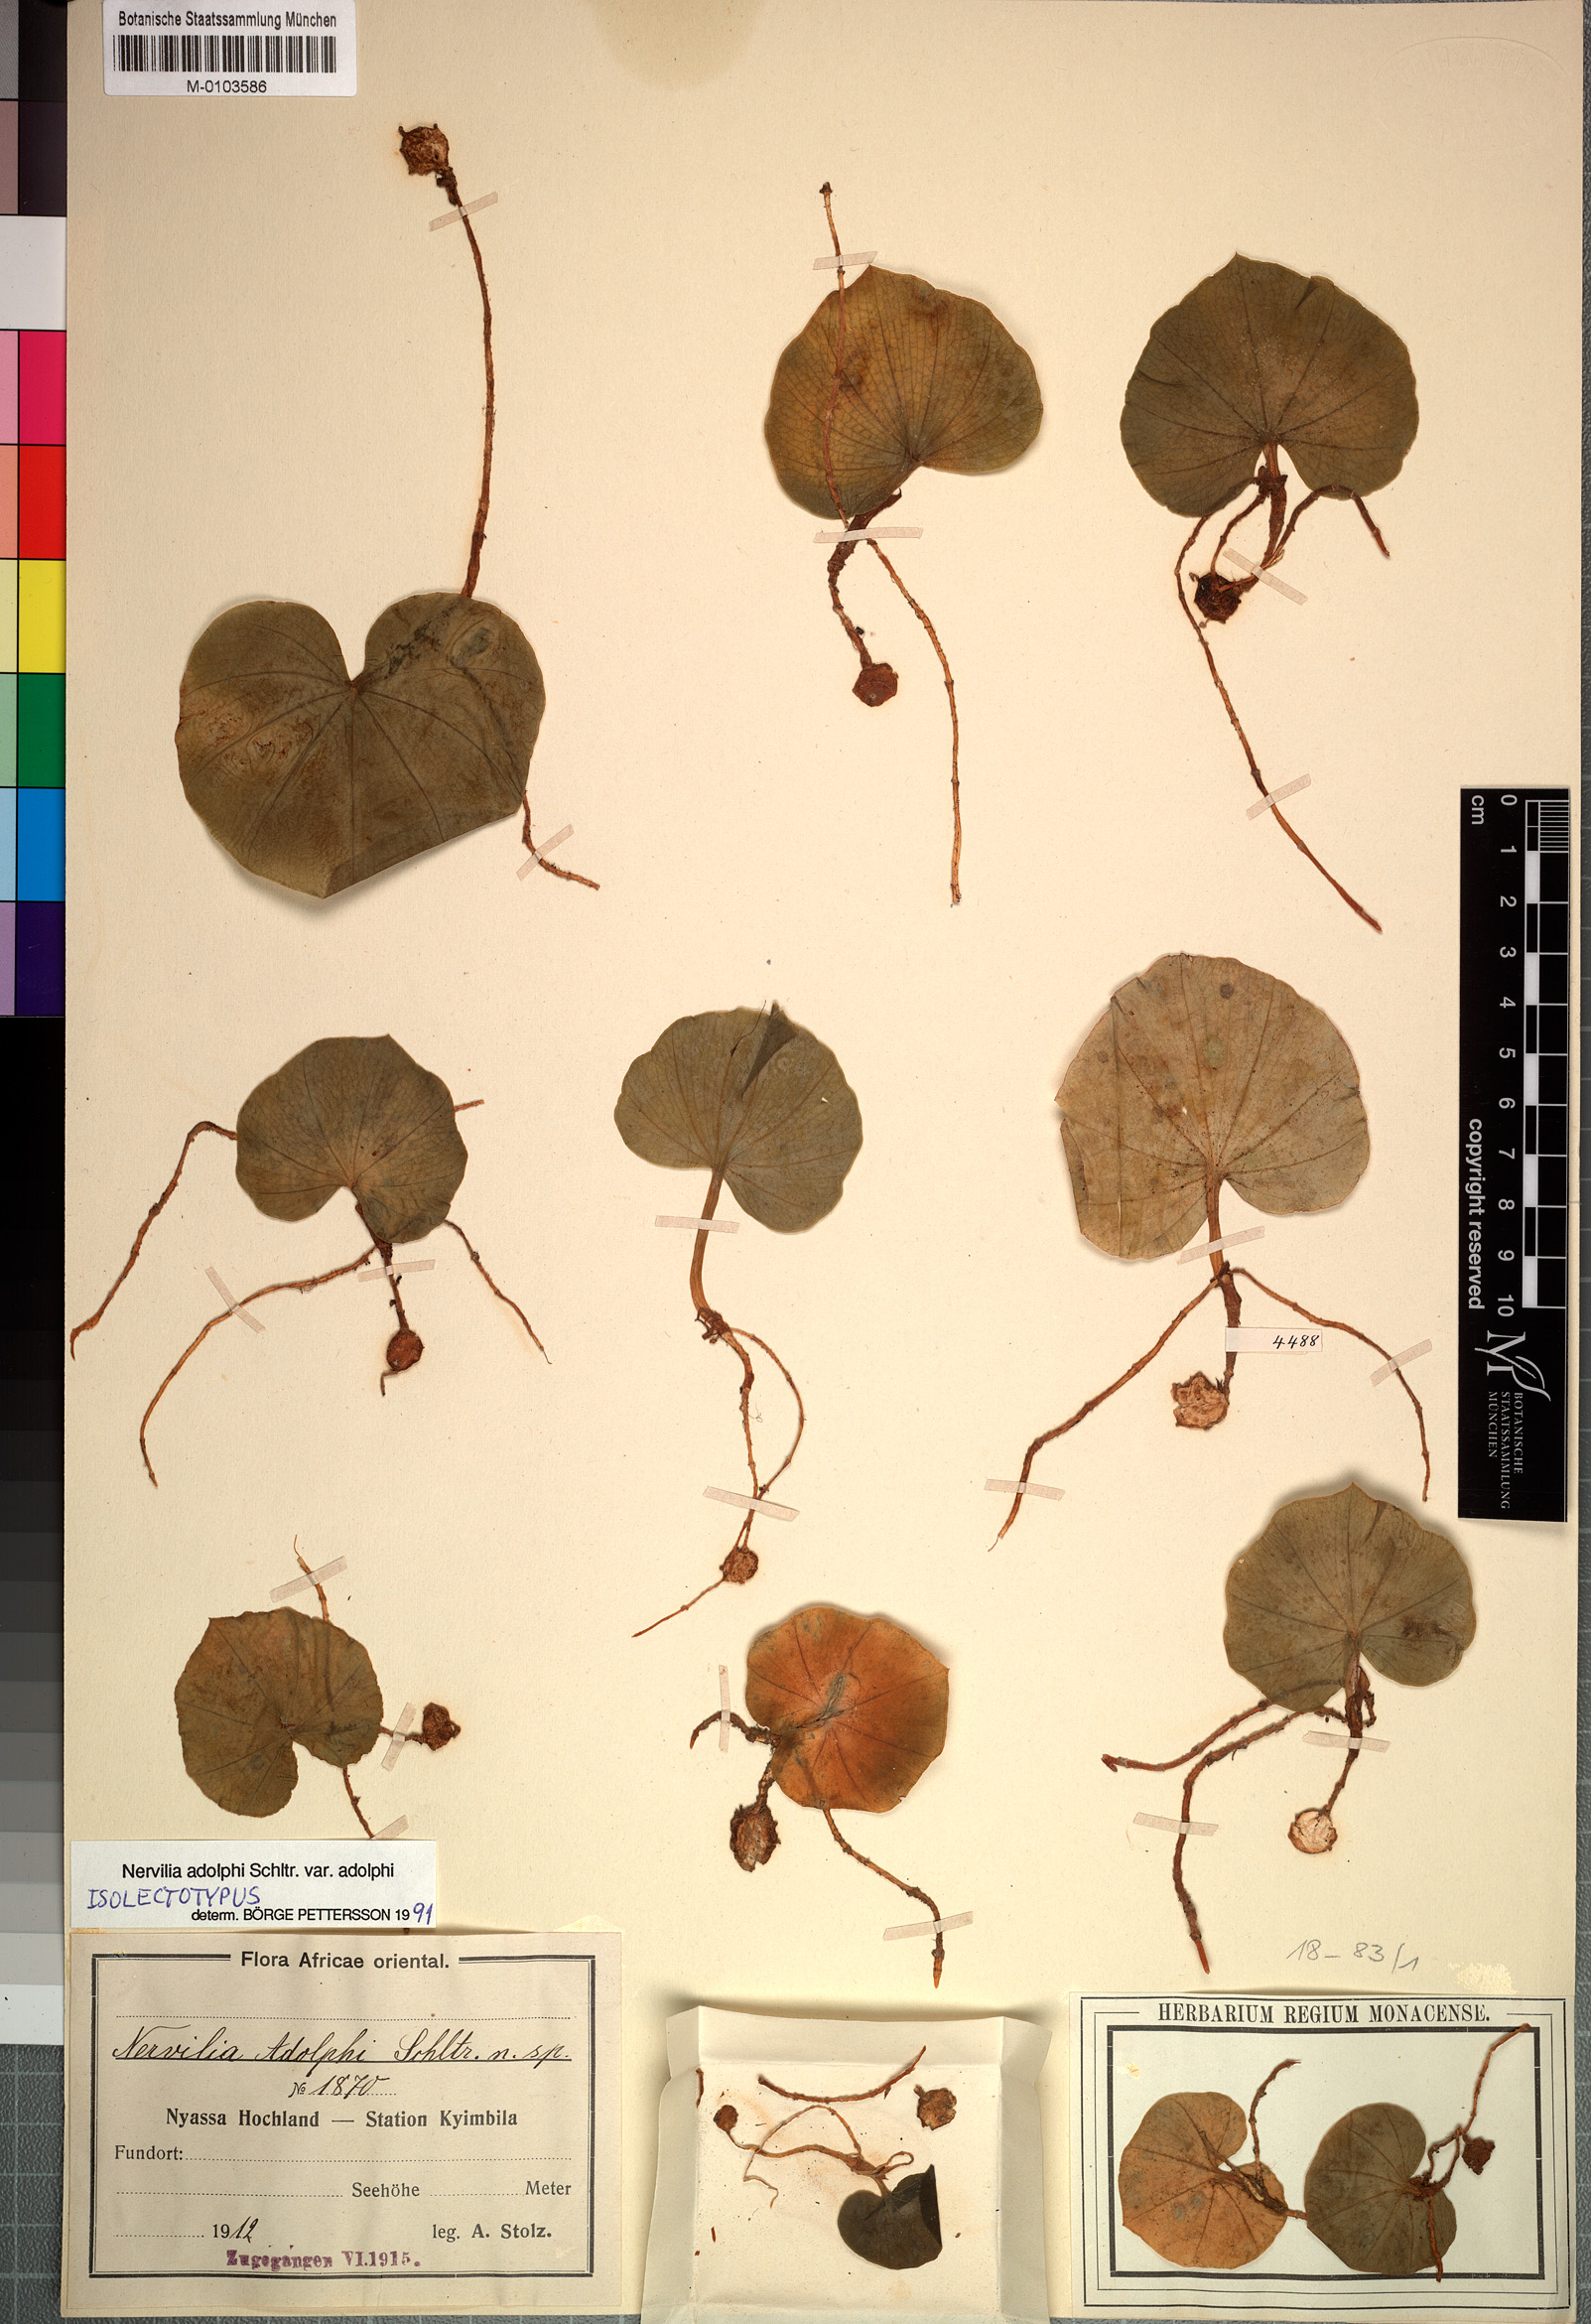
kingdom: Plantae
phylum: Tracheophyta
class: Liliopsida
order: Asparagales
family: Orchidaceae
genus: Nervilia
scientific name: Nervilia adolphi
